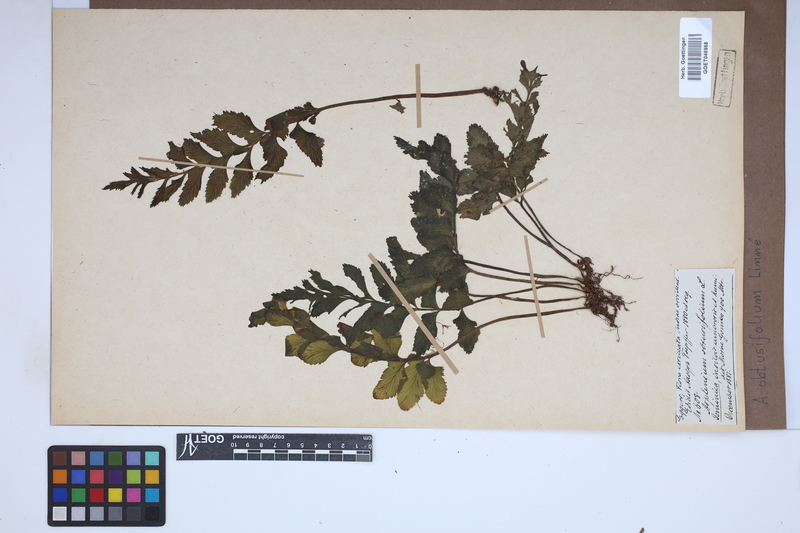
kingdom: Plantae
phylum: Tracheophyta
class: Polypodiopsida
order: Polypodiales
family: Aspleniaceae
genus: Hymenasplenium
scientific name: Hymenasplenium obtusifolium
